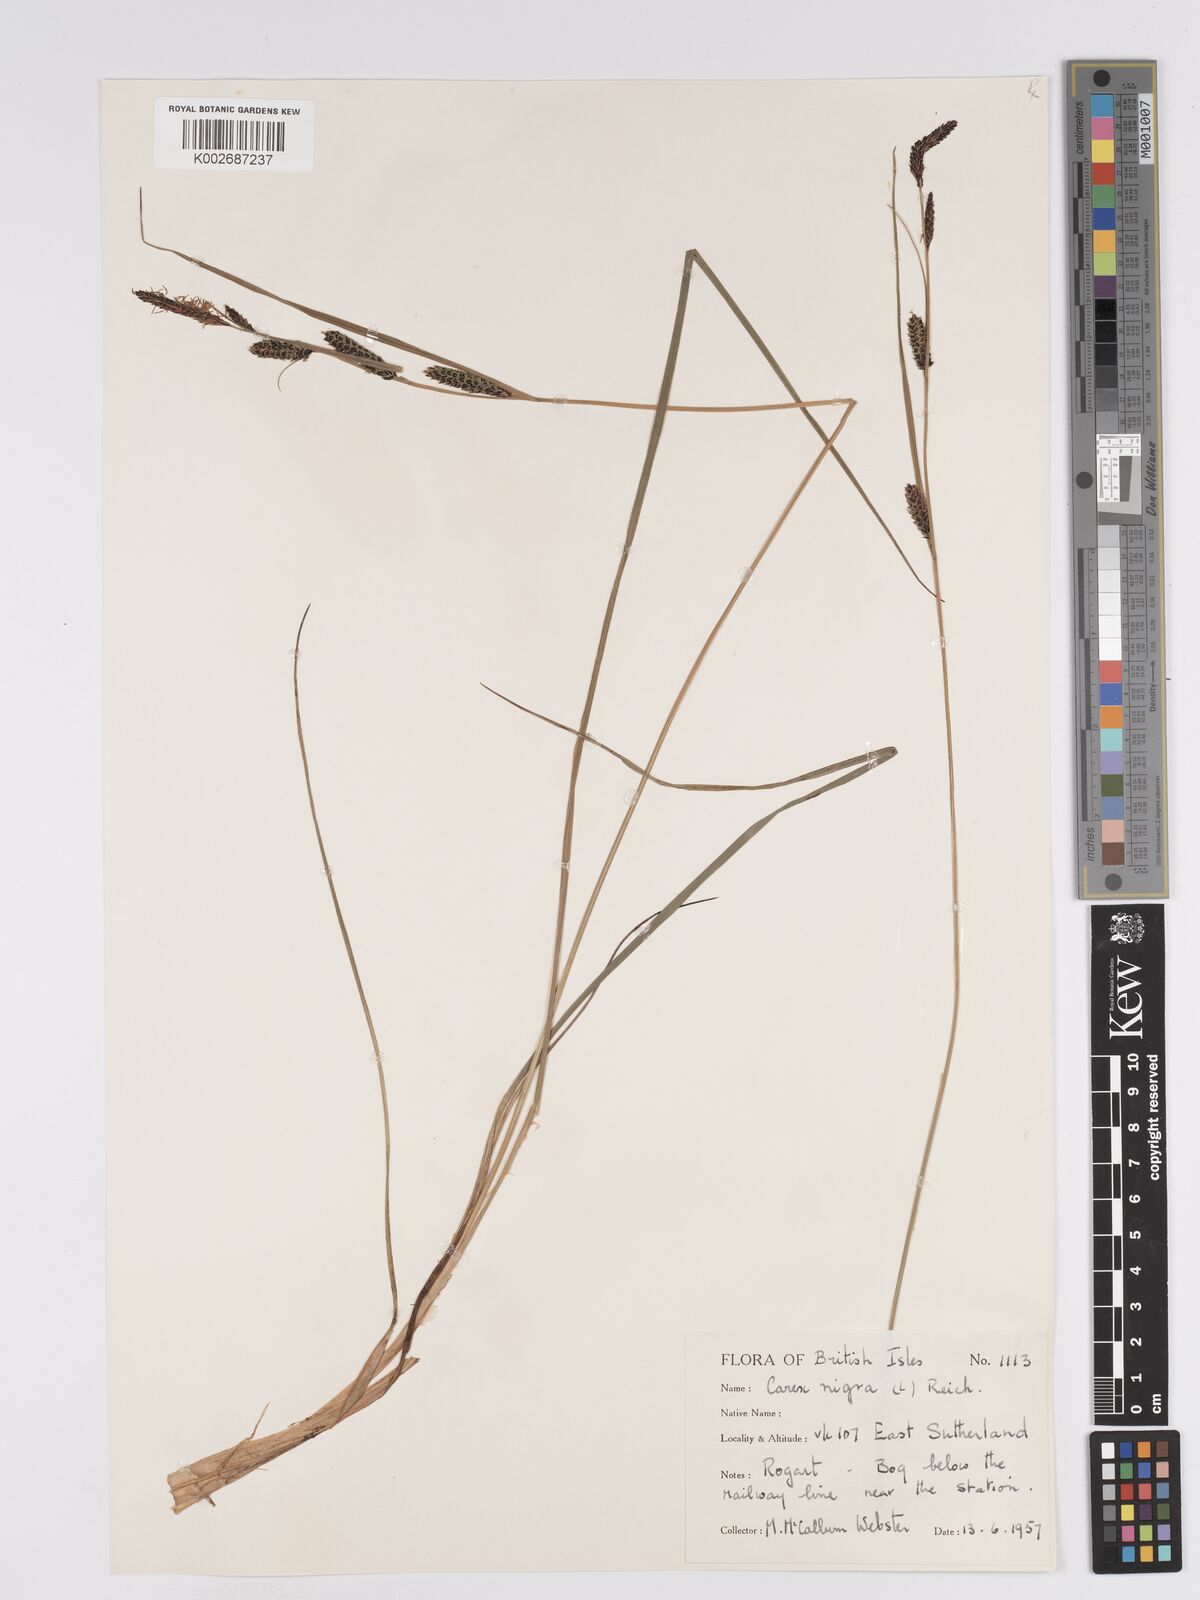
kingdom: Plantae
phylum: Tracheophyta
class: Liliopsida
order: Poales
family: Cyperaceae
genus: Carex
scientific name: Carex nigra
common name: Common sedge
